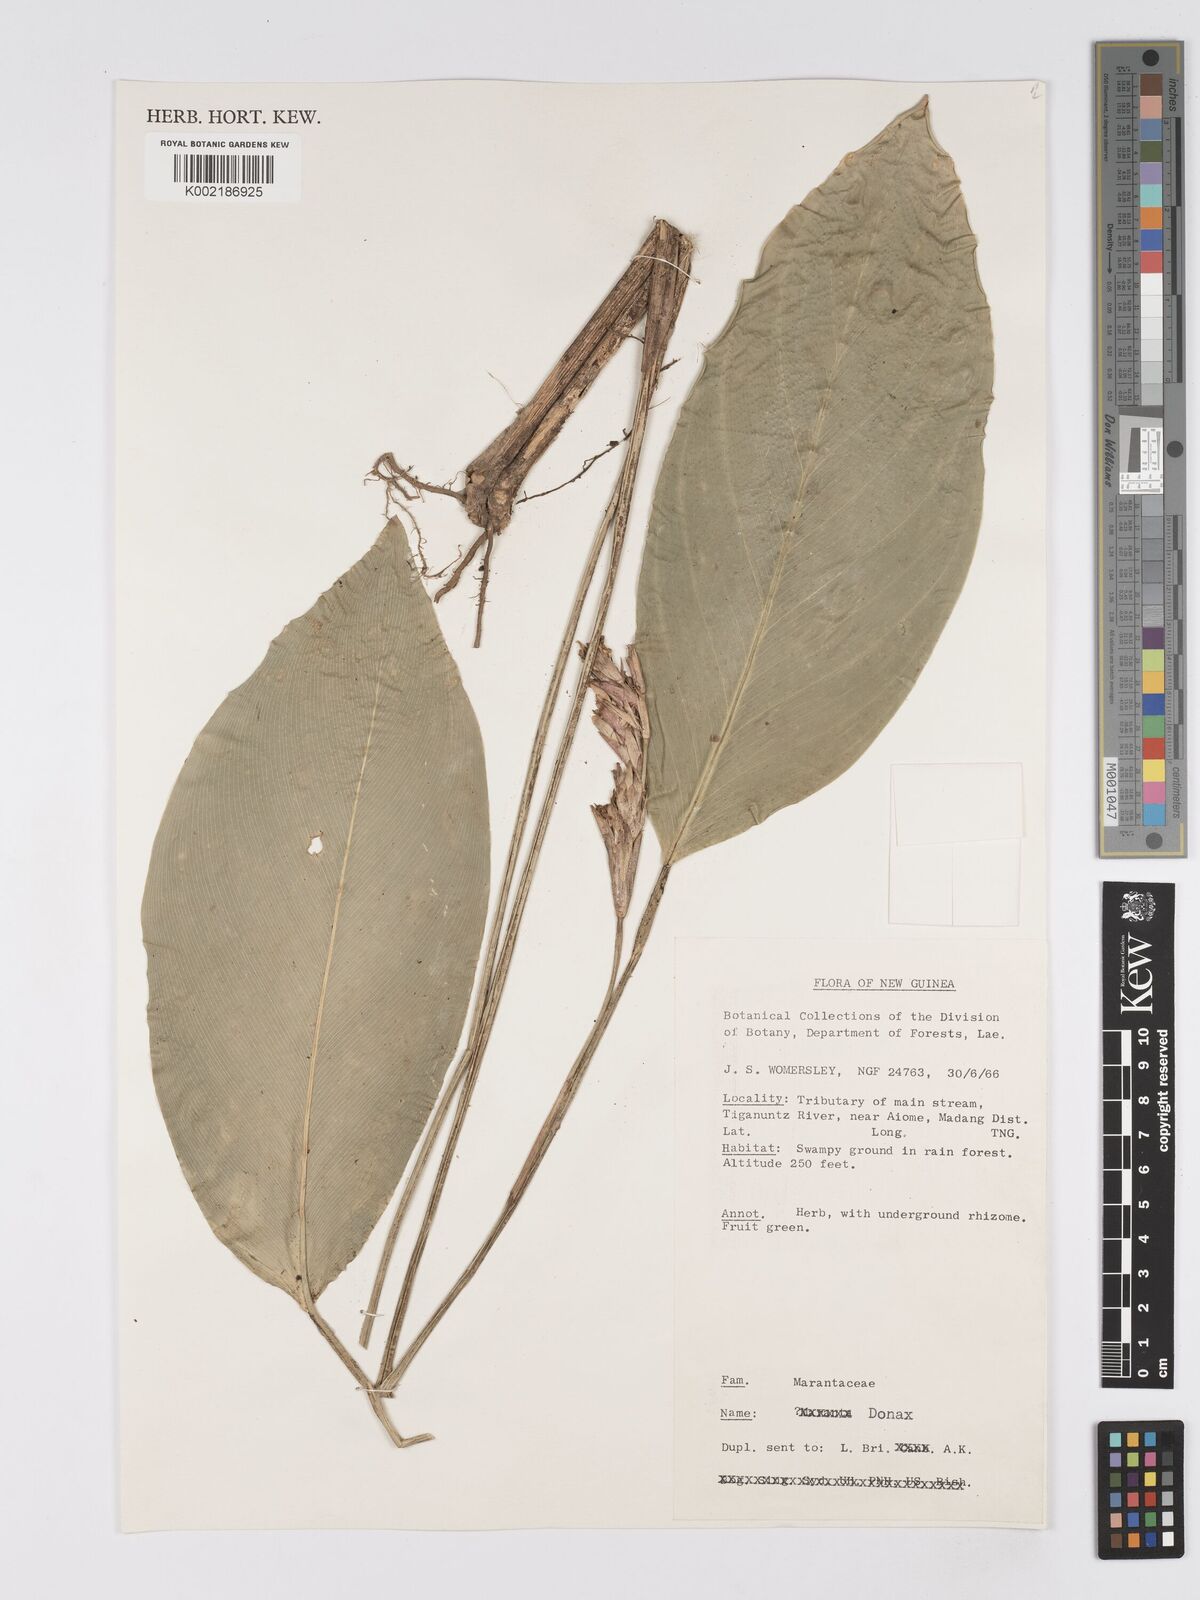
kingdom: Plantae
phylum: Tracheophyta
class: Liliopsida
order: Zingiberales
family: Marantaceae
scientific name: Marantaceae
